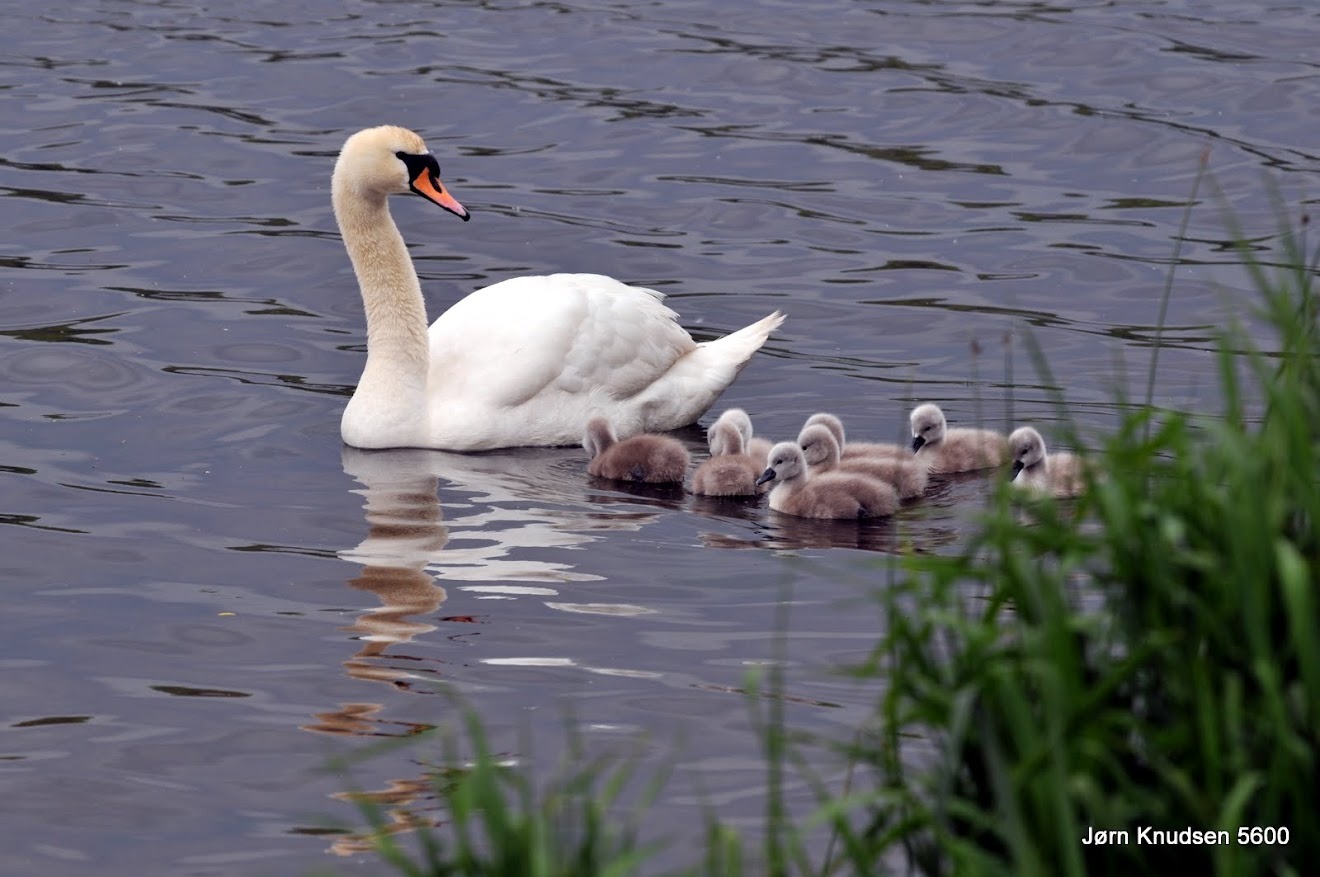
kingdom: Animalia
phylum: Chordata
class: Aves
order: Anseriformes
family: Anatidae
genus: Cygnus
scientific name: Cygnus olor
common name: Knopsvane
